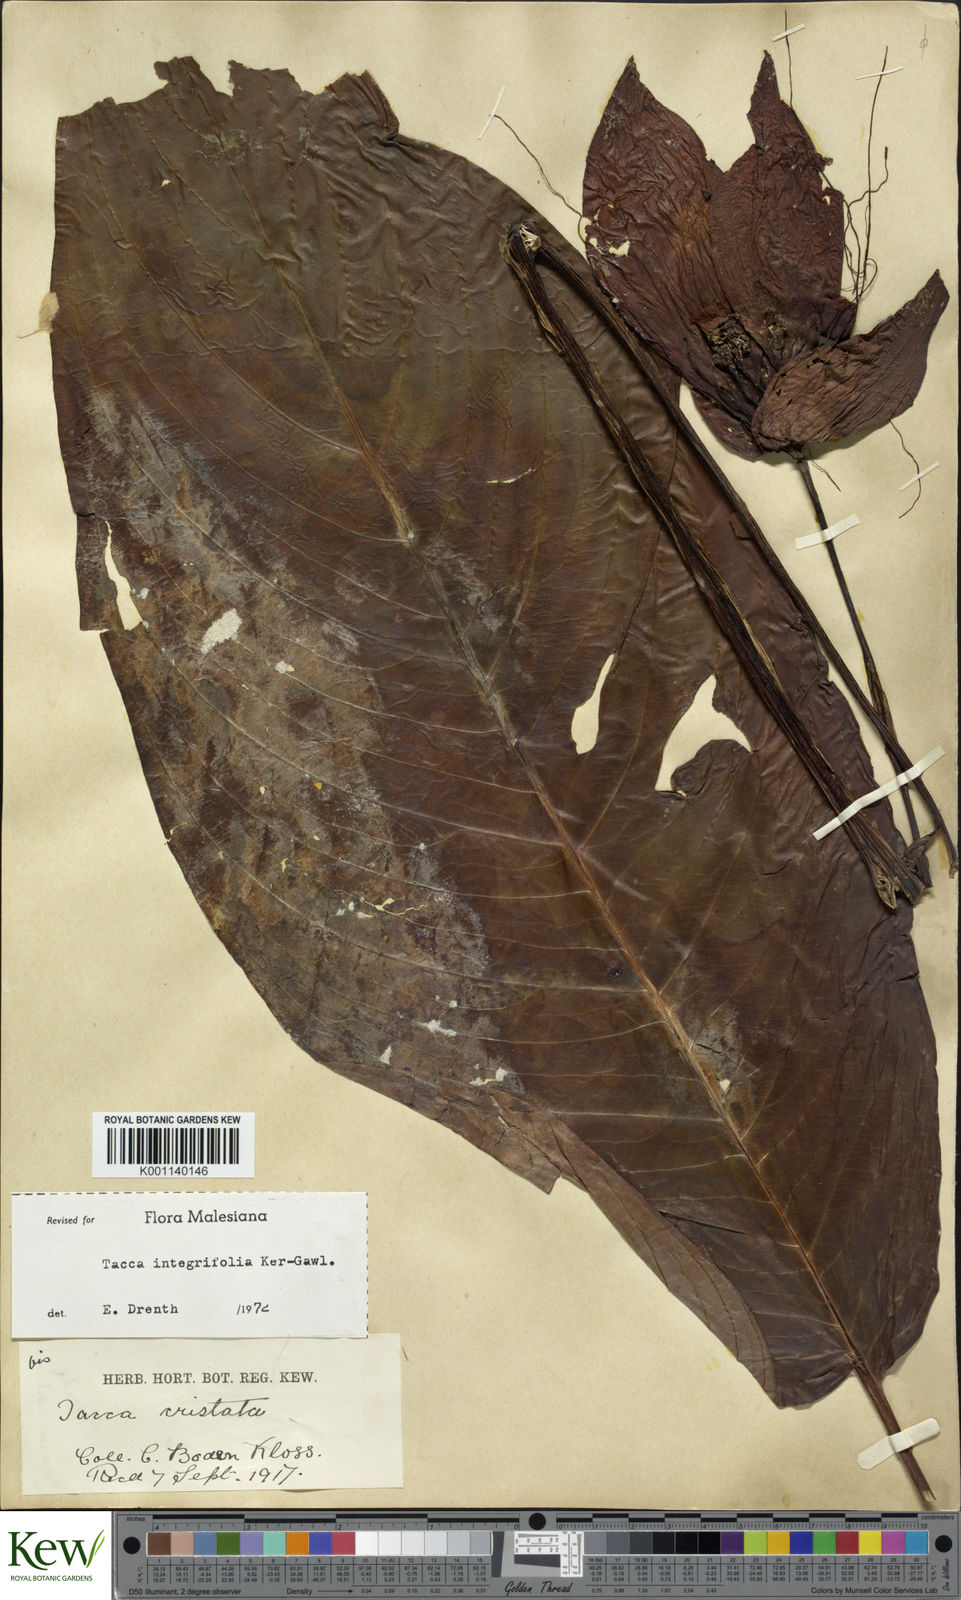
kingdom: Plantae
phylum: Tracheophyta
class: Liliopsida
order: Dioscoreales
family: Dioscoreaceae
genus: Tacca
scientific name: Tacca integrifolia
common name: Batplant
